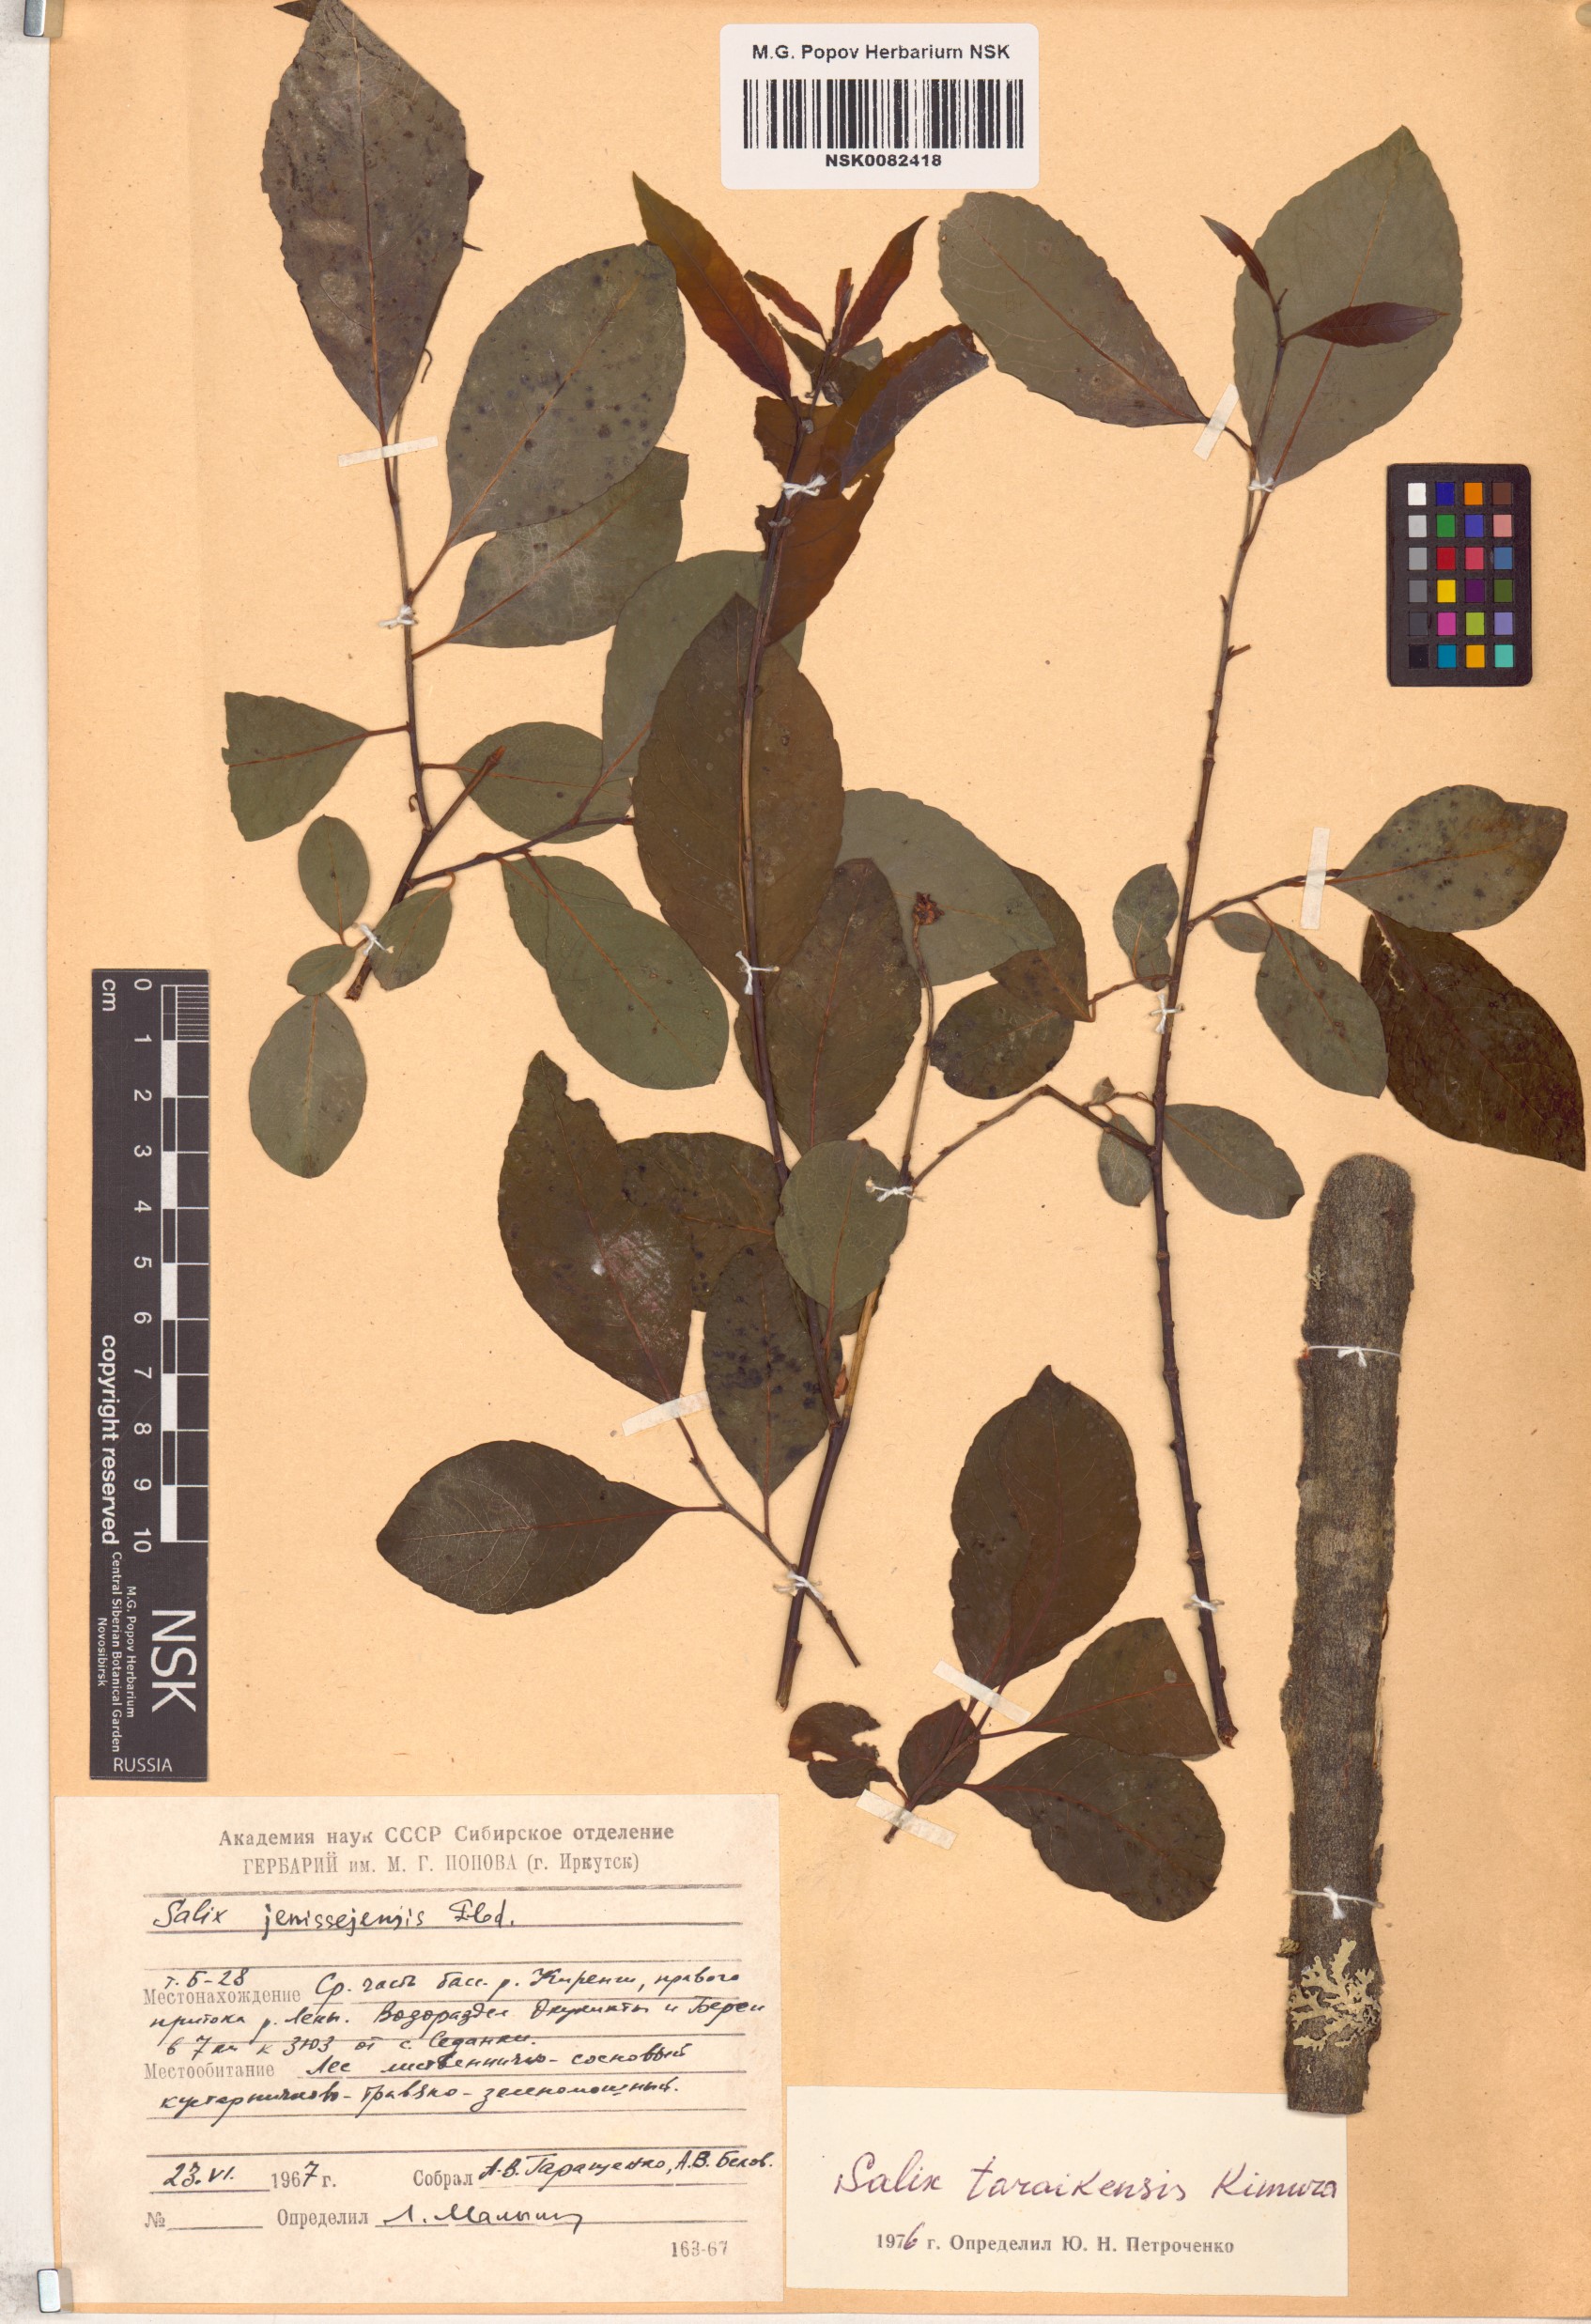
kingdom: Plantae
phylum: Tracheophyta
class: Magnoliopsida
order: Malpighiales
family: Salicaceae
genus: Salix
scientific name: Salix taraikensis
